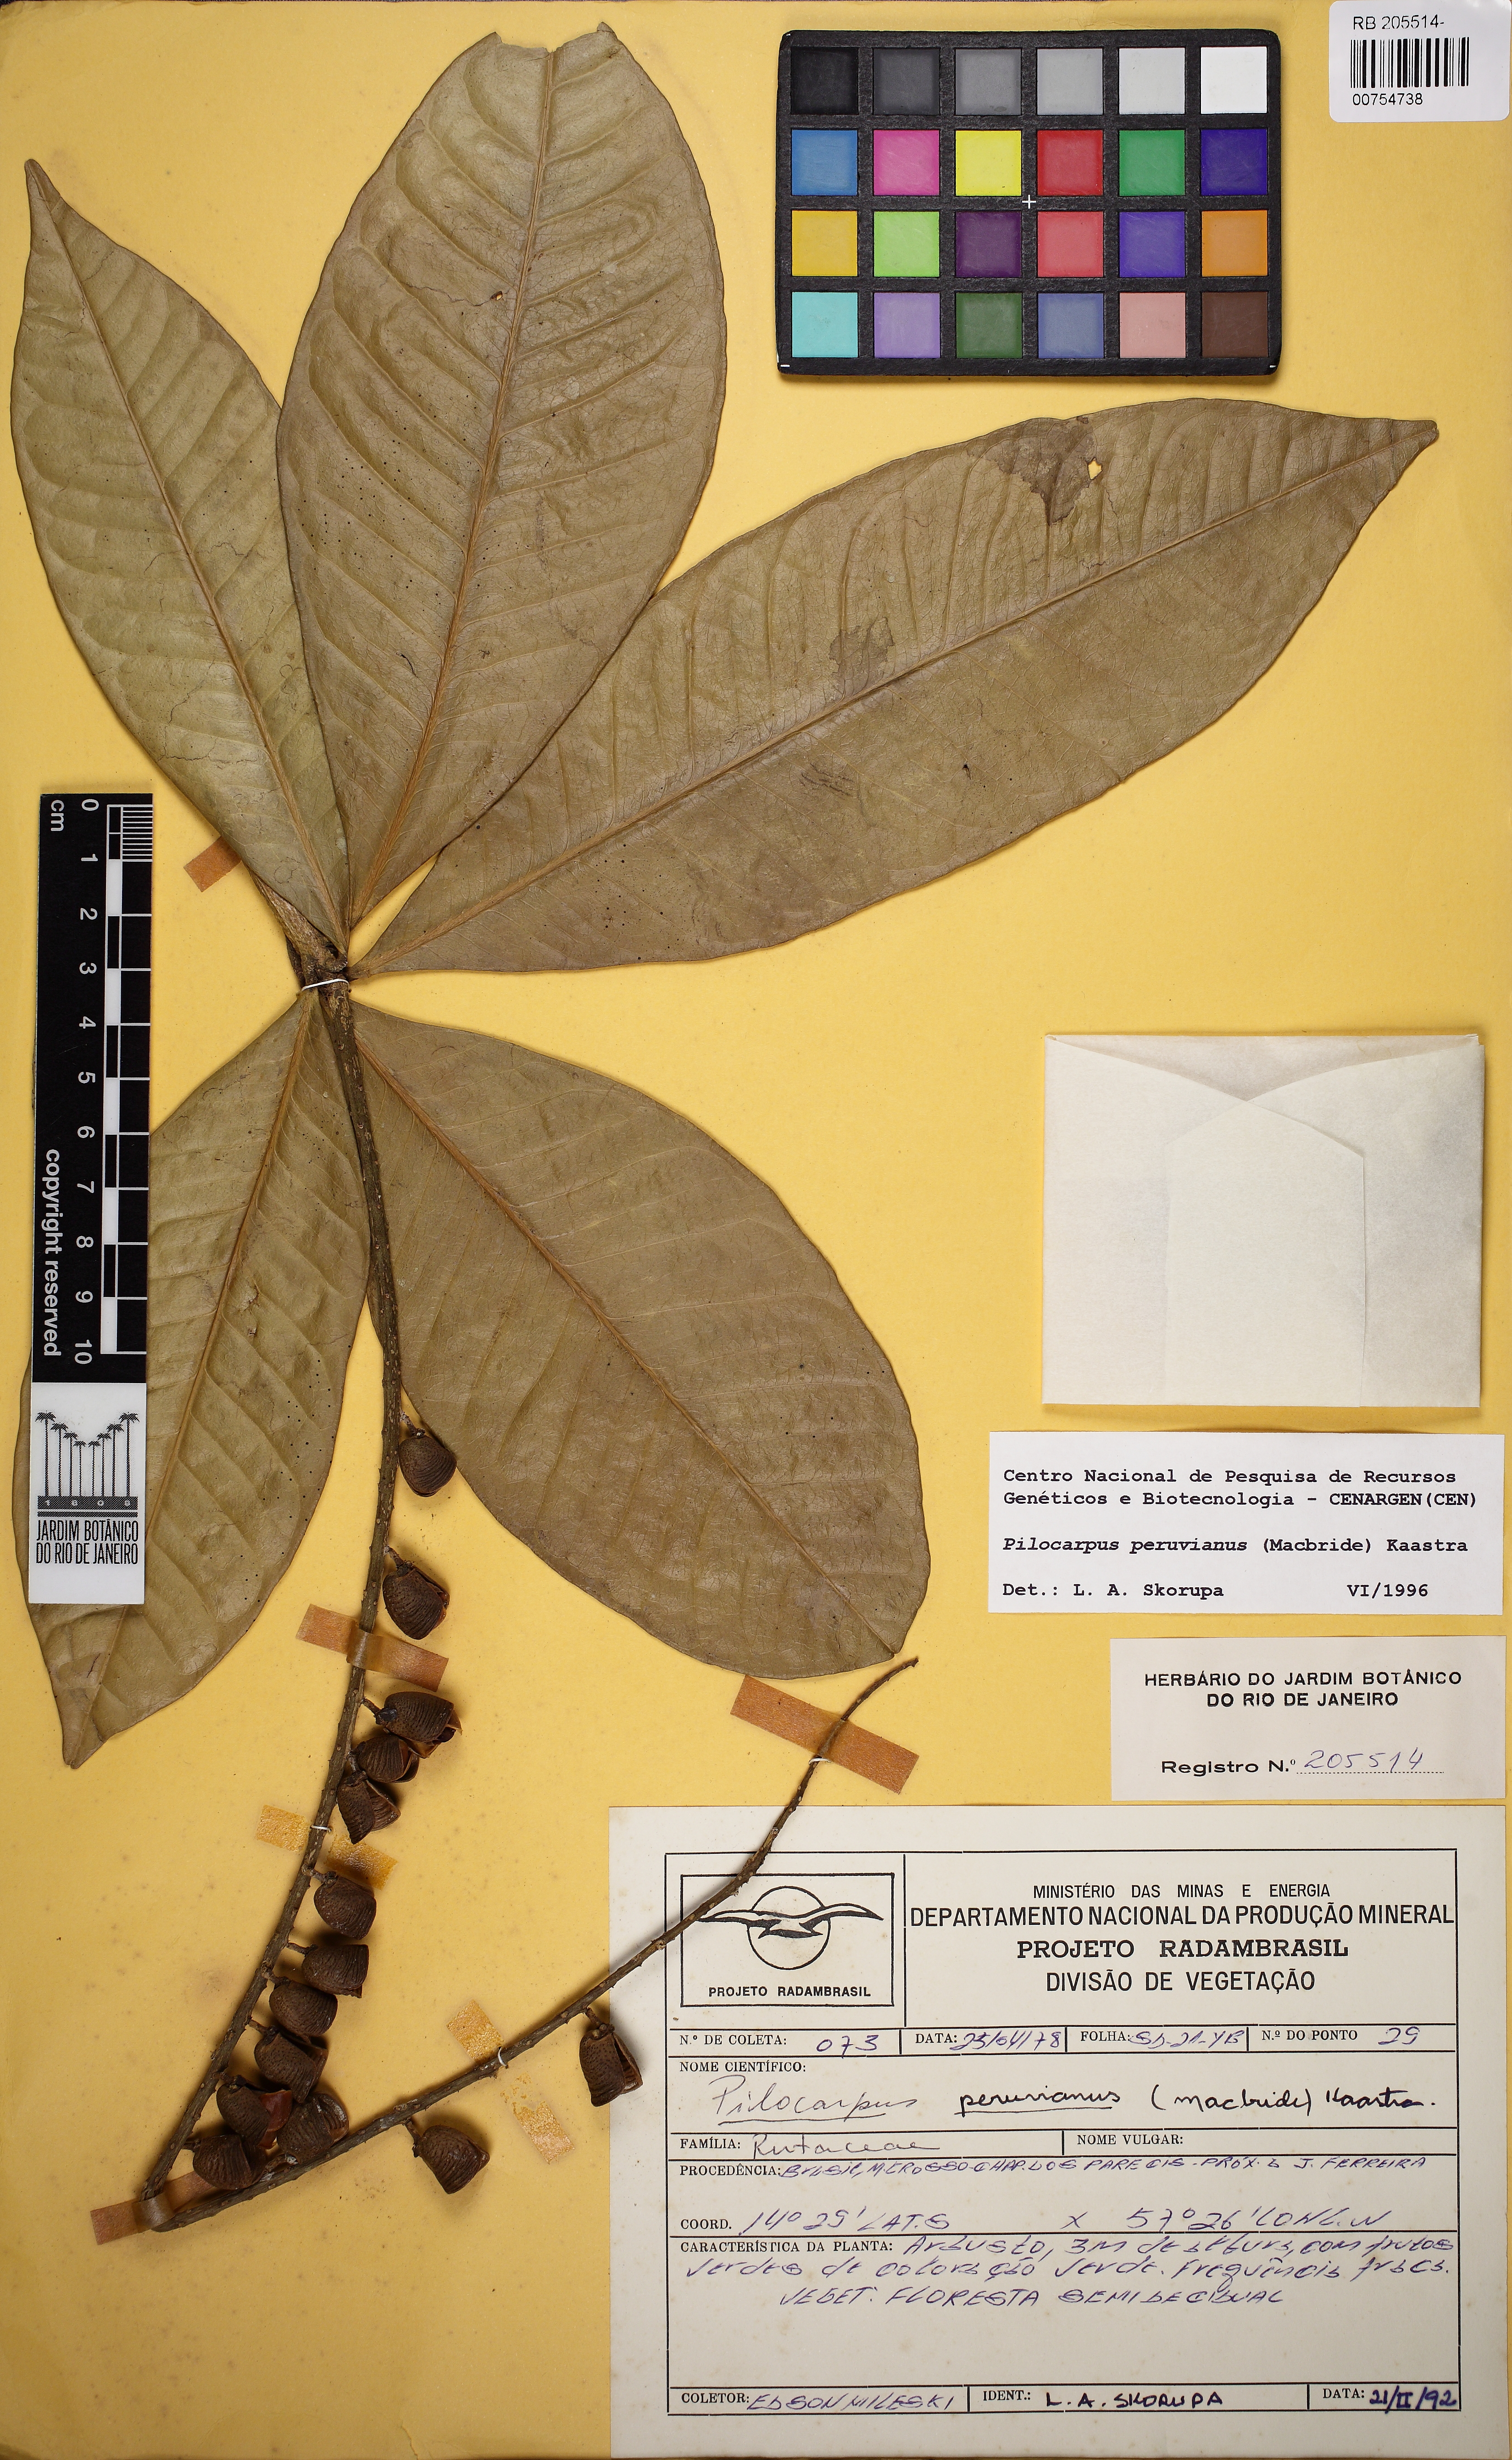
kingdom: Plantae
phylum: Tracheophyta
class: Magnoliopsida
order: Sapindales
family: Rutaceae
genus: Pilocarpus
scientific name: Pilocarpus peruvianus
